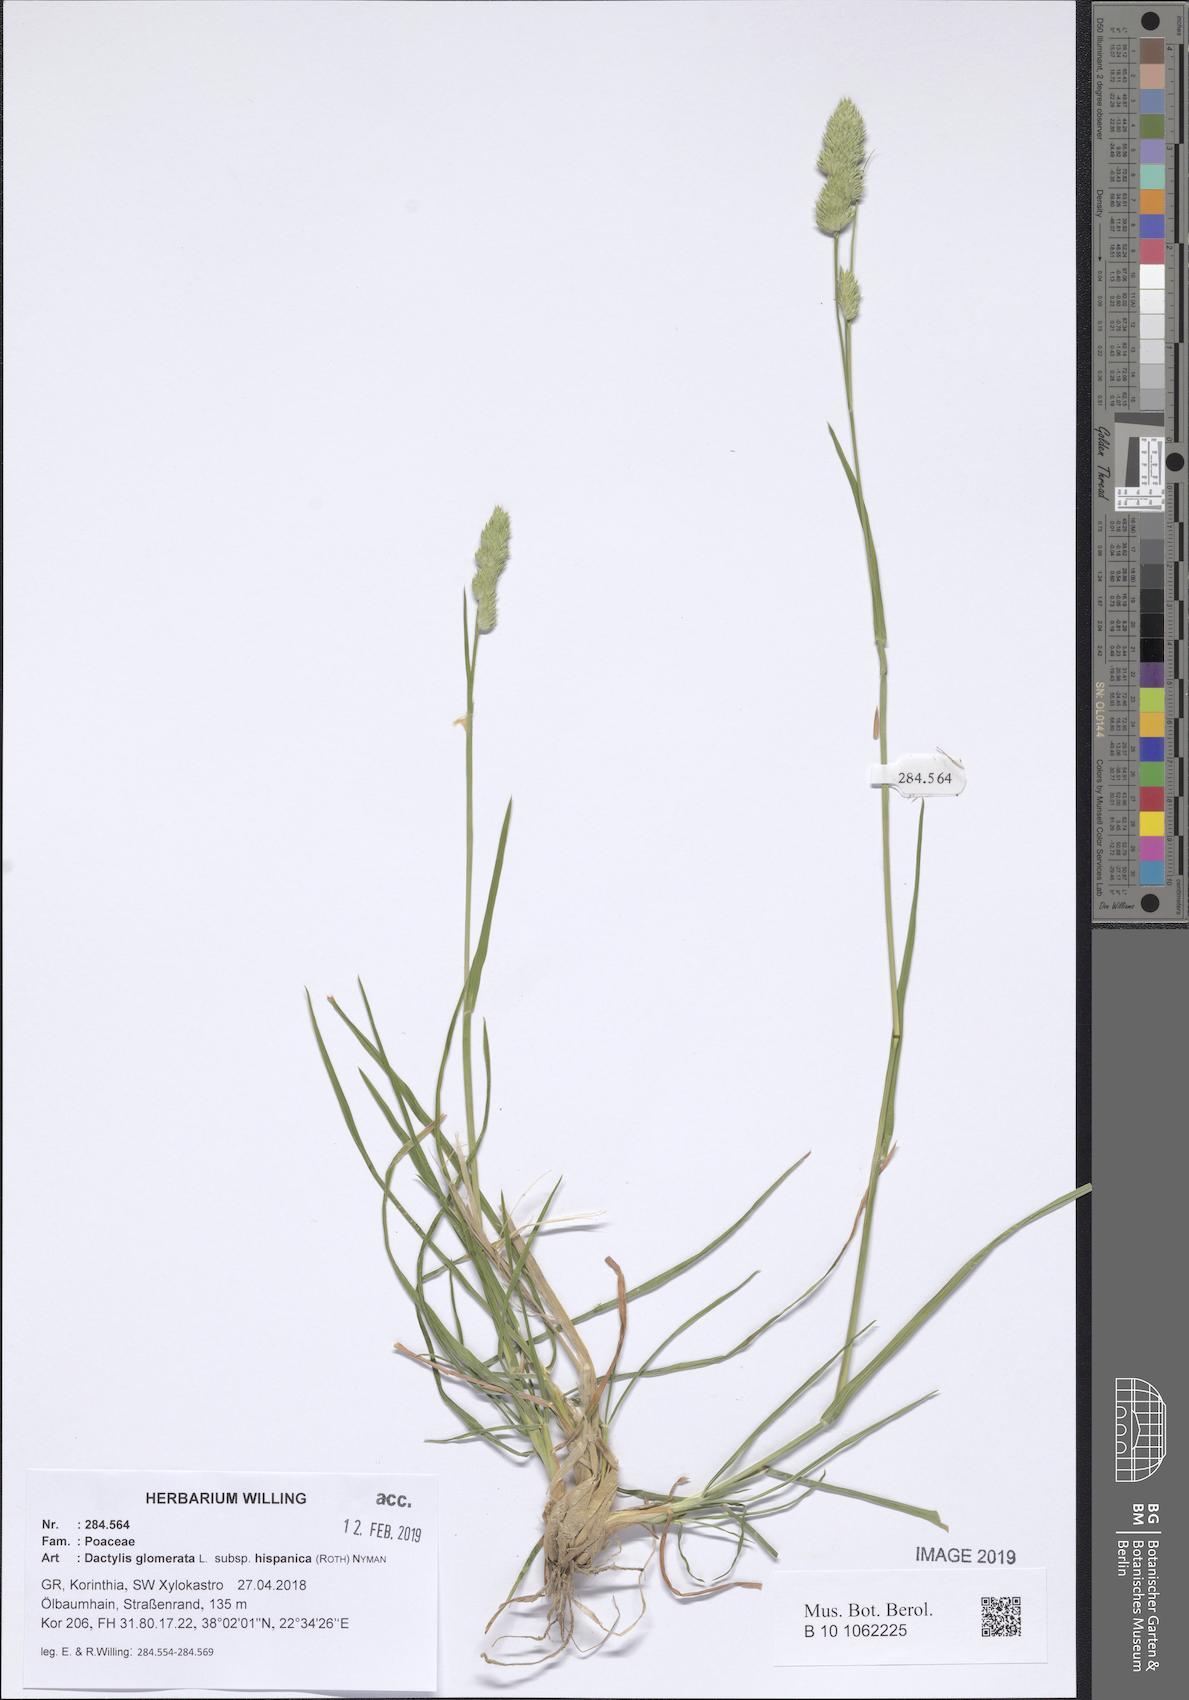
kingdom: Plantae
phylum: Tracheophyta
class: Liliopsida
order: Poales
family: Poaceae
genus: Dactylis
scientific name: Dactylis glomerata
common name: Orchardgrass
